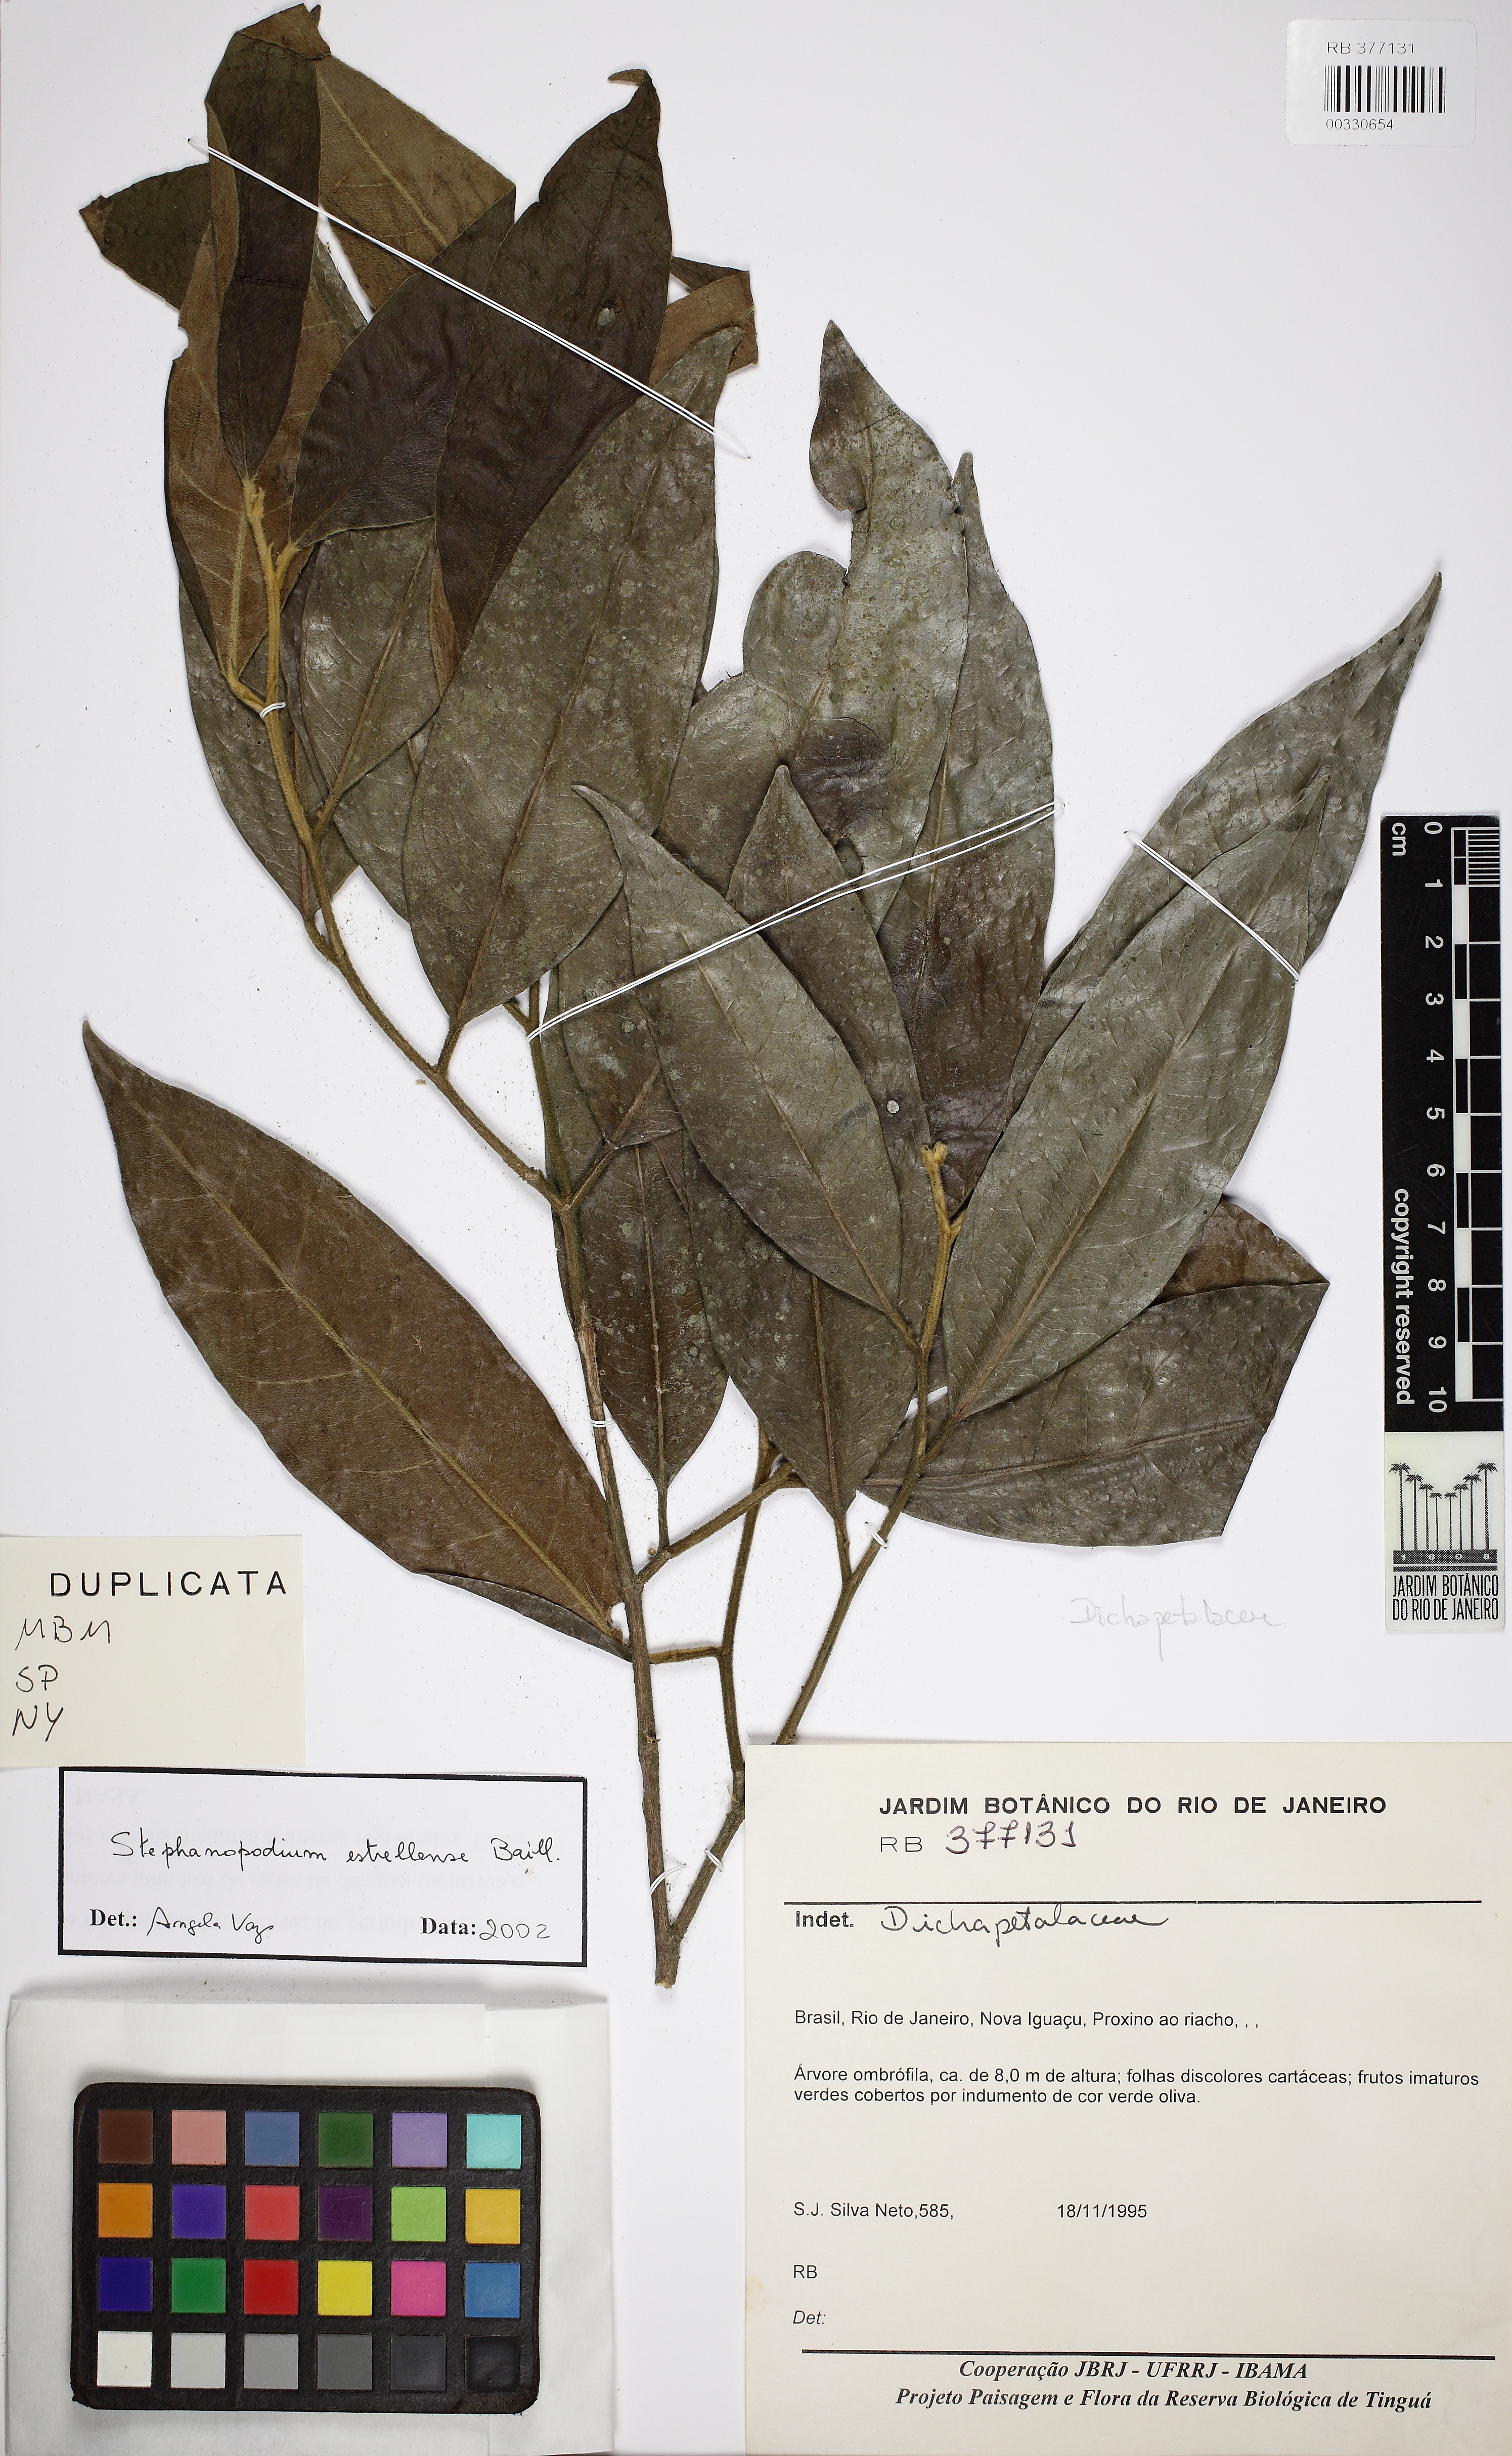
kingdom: Plantae
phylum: Tracheophyta
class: Magnoliopsida
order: Malpighiales
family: Dichapetalaceae
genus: Stephanopodium
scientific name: Stephanopodium estrellense
